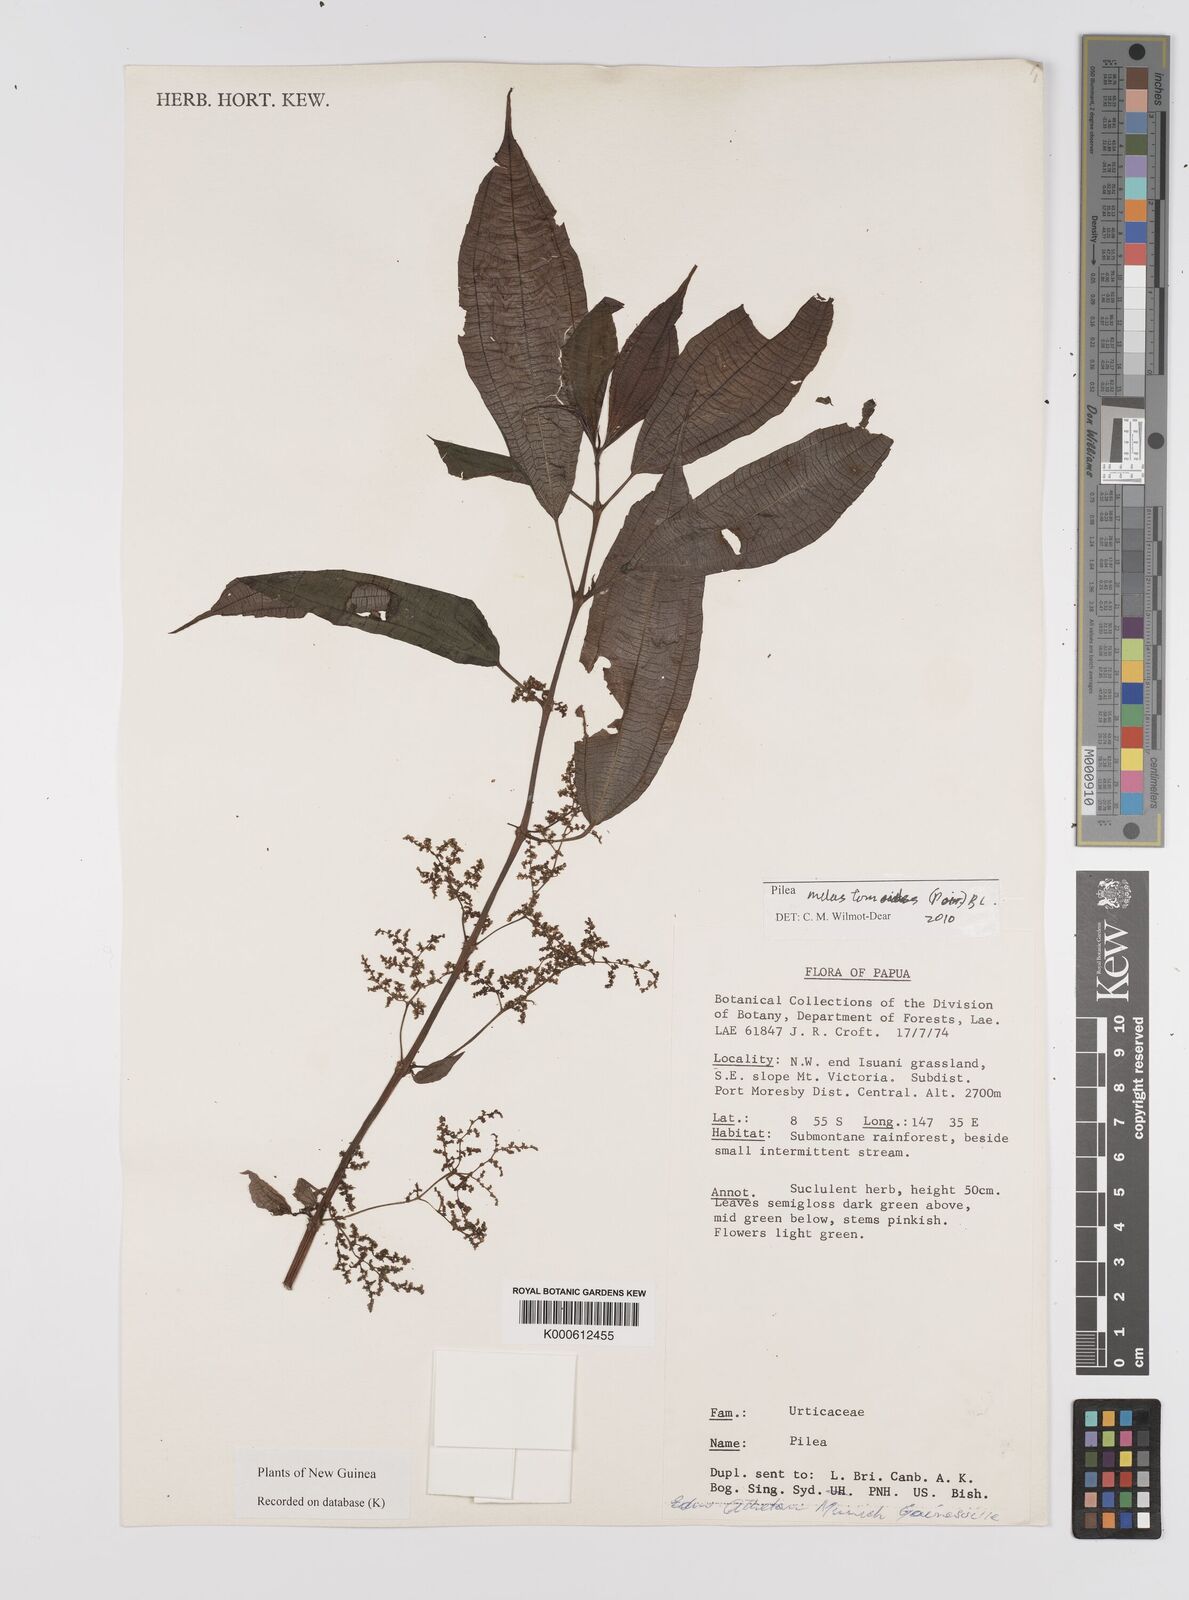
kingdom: Plantae
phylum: Tracheophyta
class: Magnoliopsida
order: Rosales
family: Urticaceae
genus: Pilea
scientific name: Pilea
